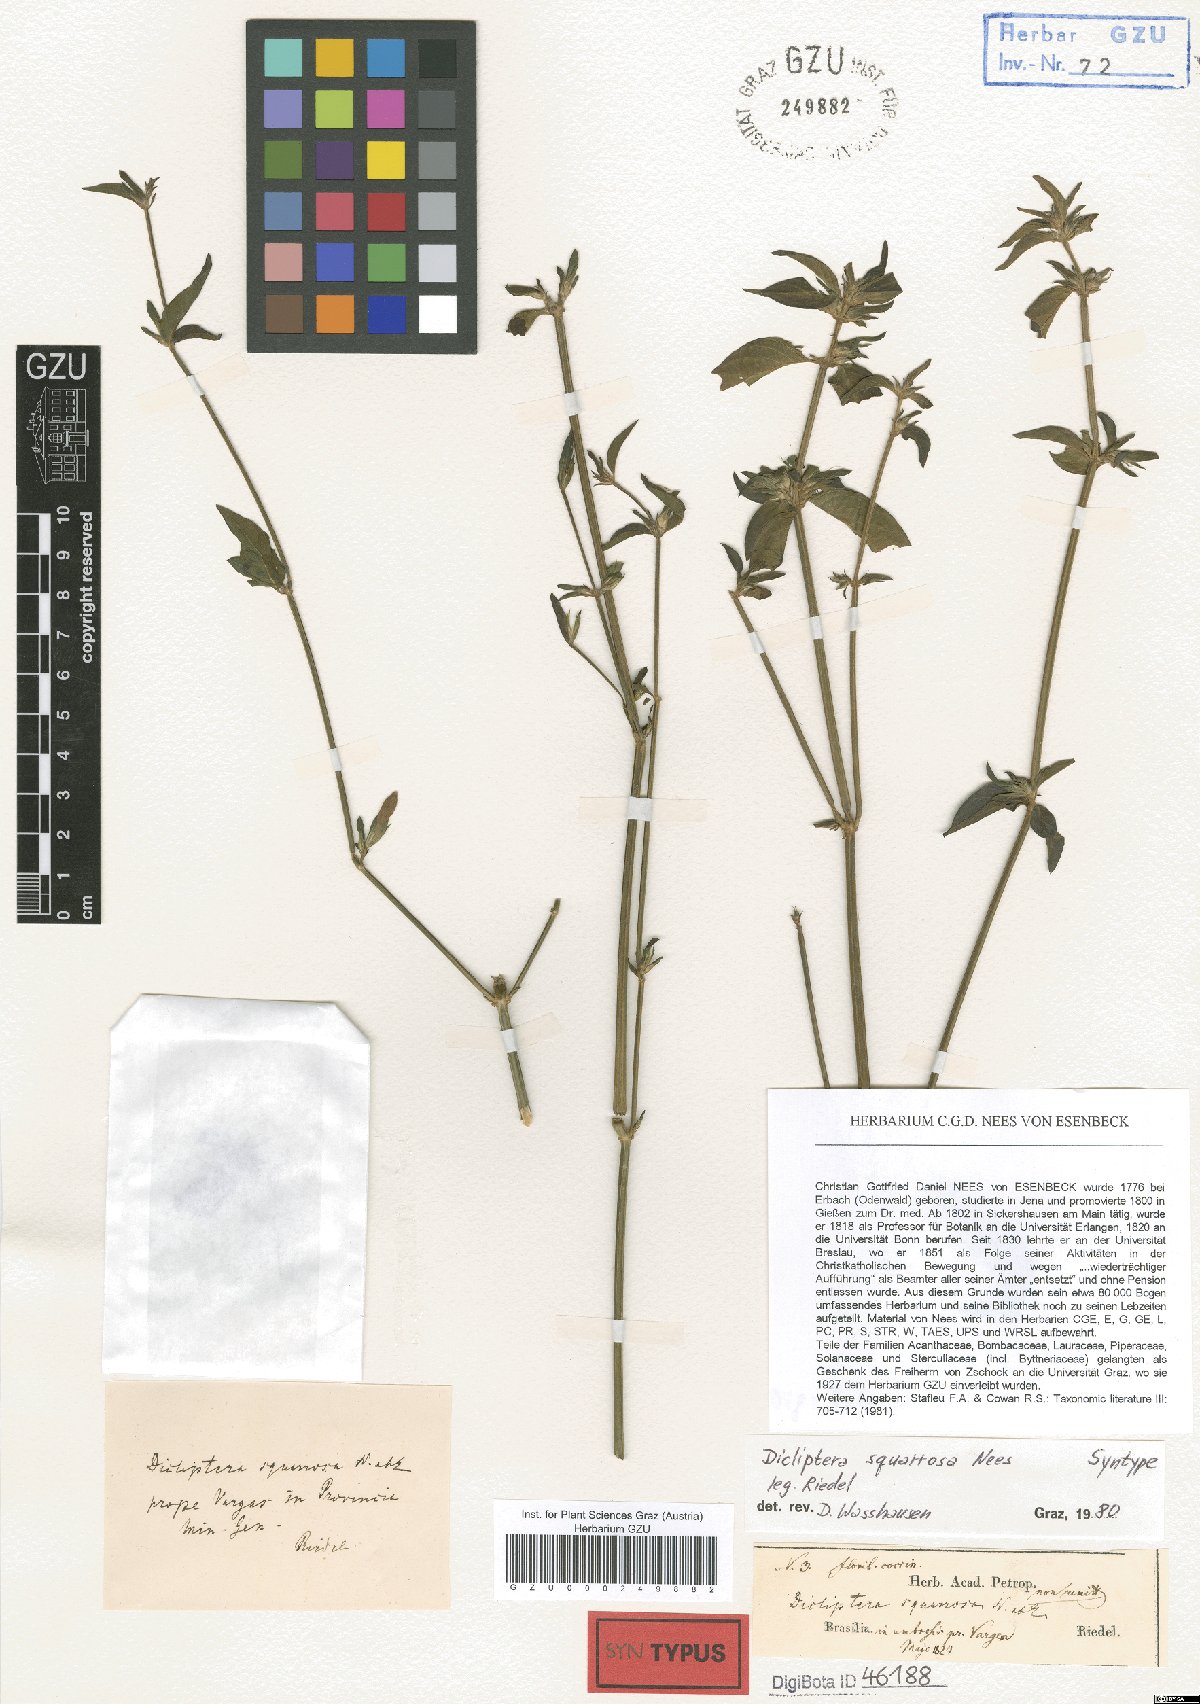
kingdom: Plantae
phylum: Tracheophyta
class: Magnoliopsida
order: Lamiales
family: Acanthaceae
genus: Dicliptera
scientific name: Dicliptera squarrosa
